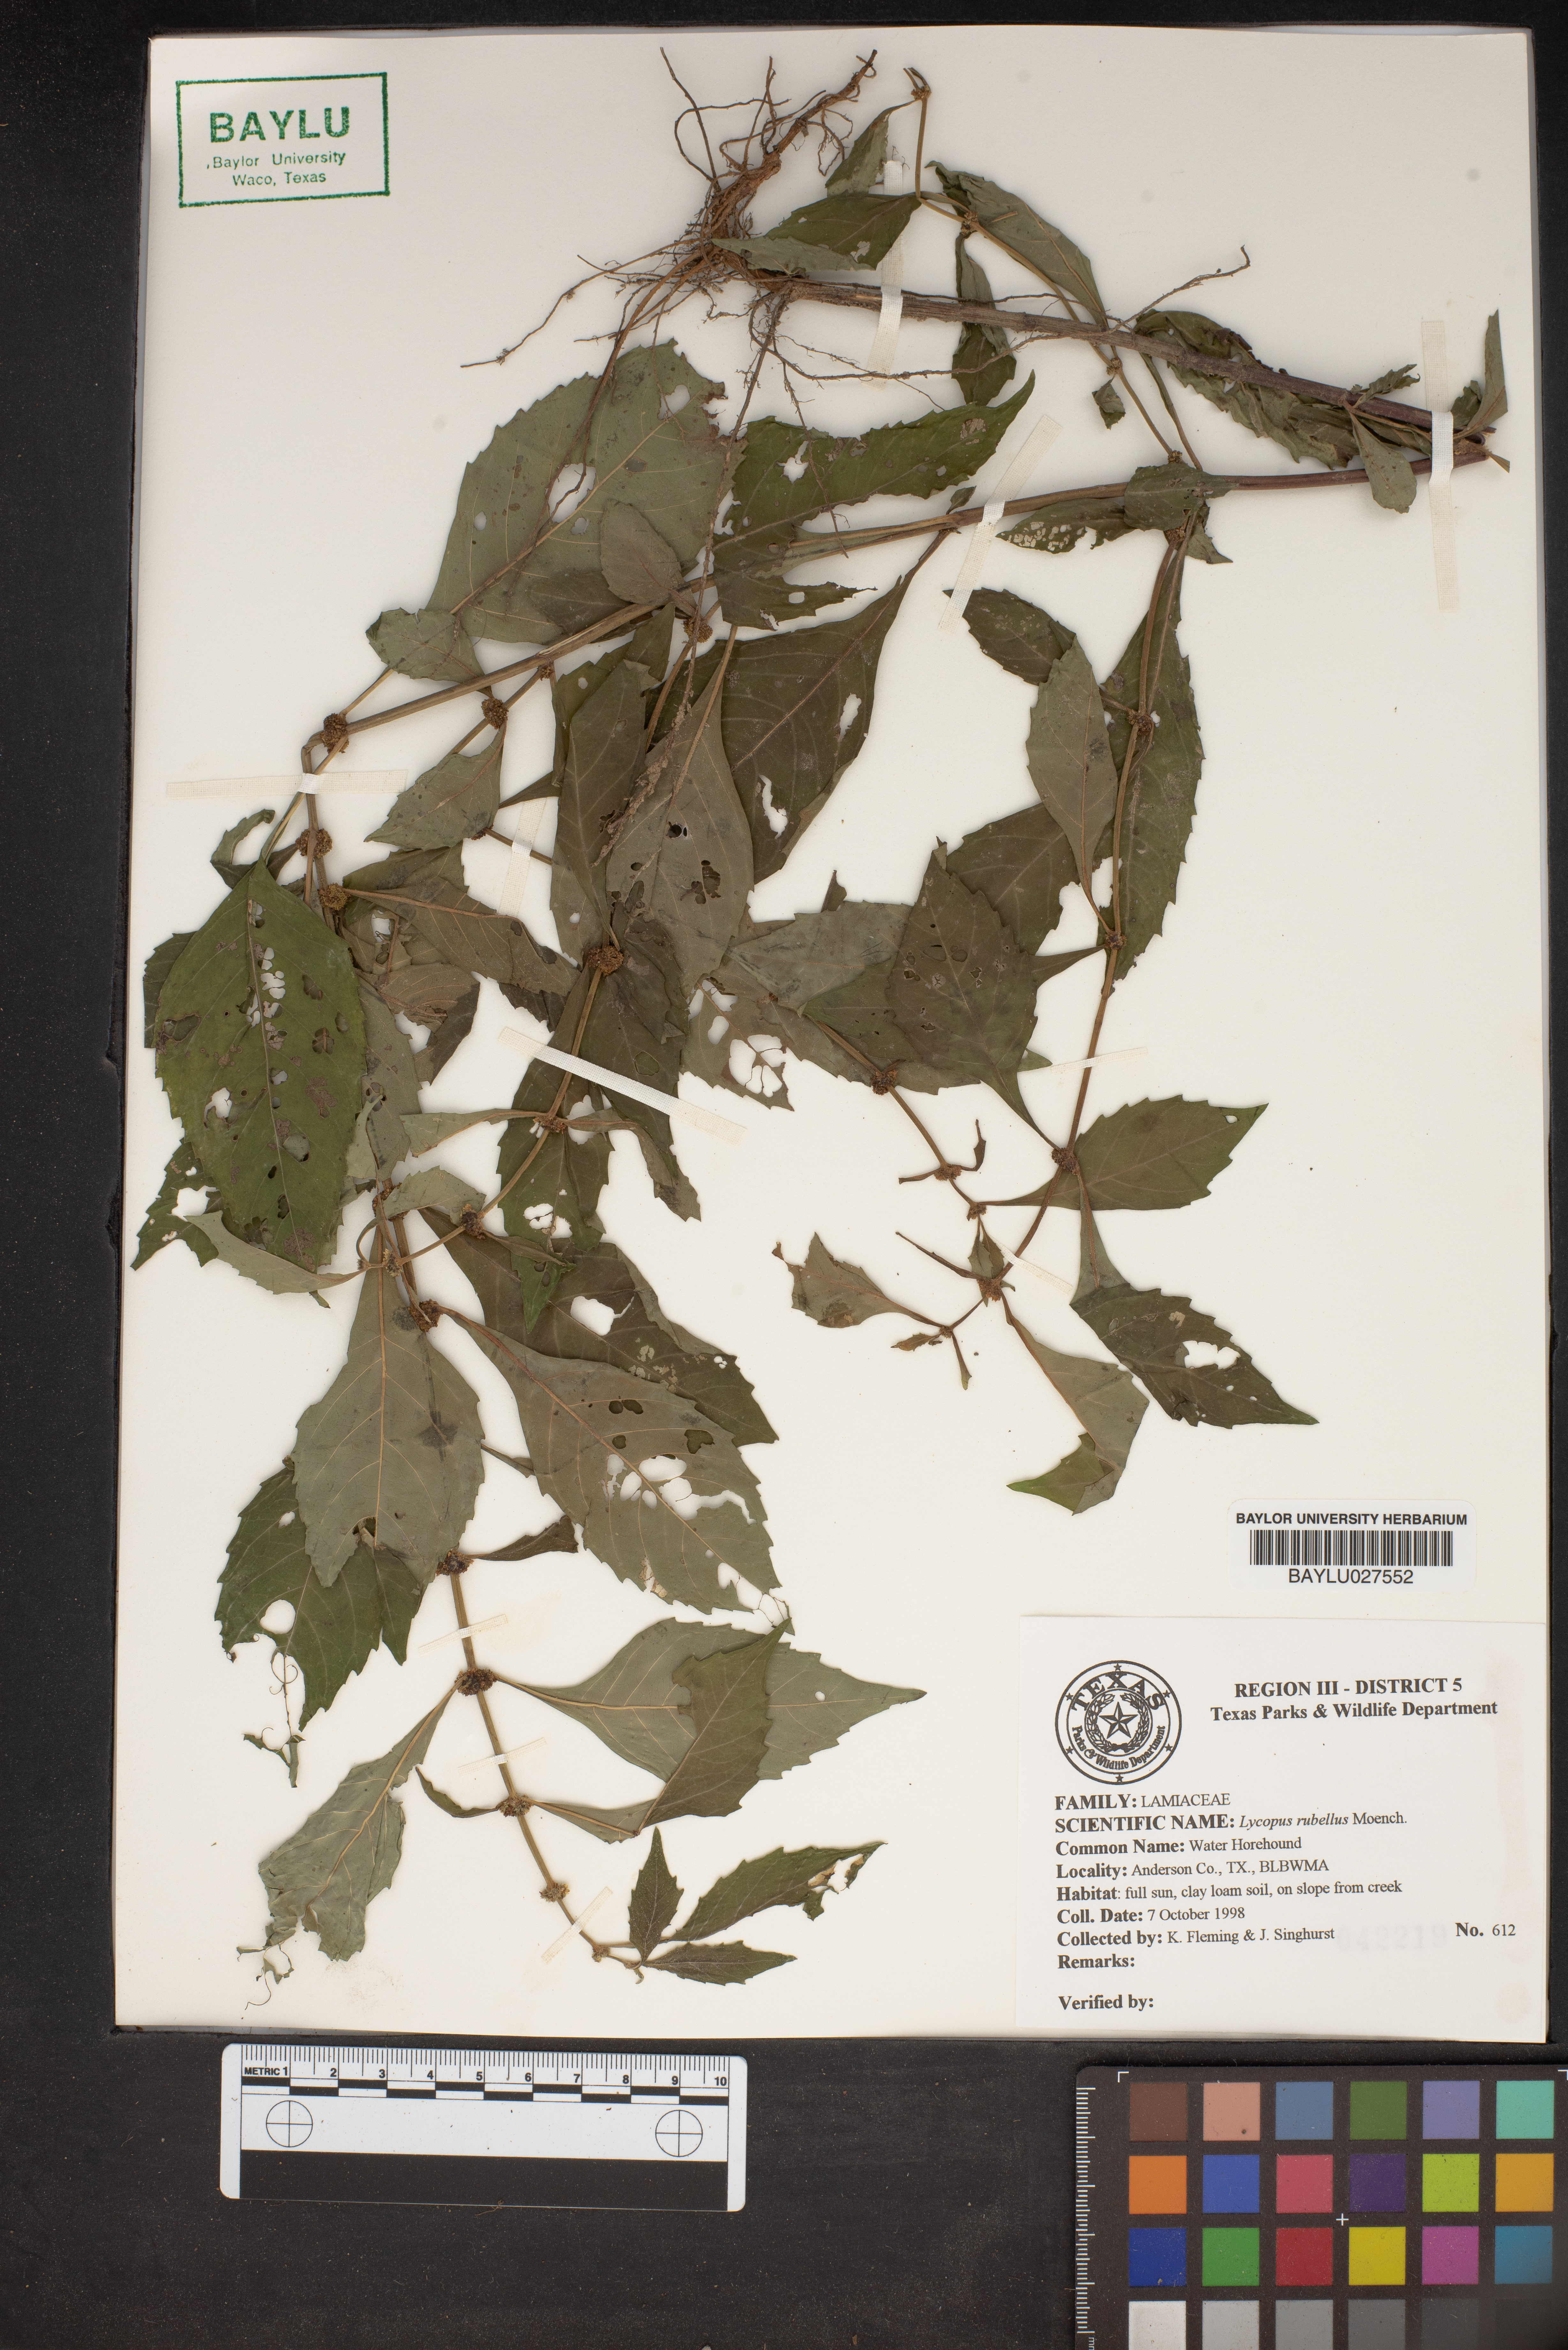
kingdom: Plantae
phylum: Tracheophyta
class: Magnoliopsida
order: Lamiales
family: Lamiaceae
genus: Lycopus
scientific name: Lycopus rubellus
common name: Stalked bugleweed
